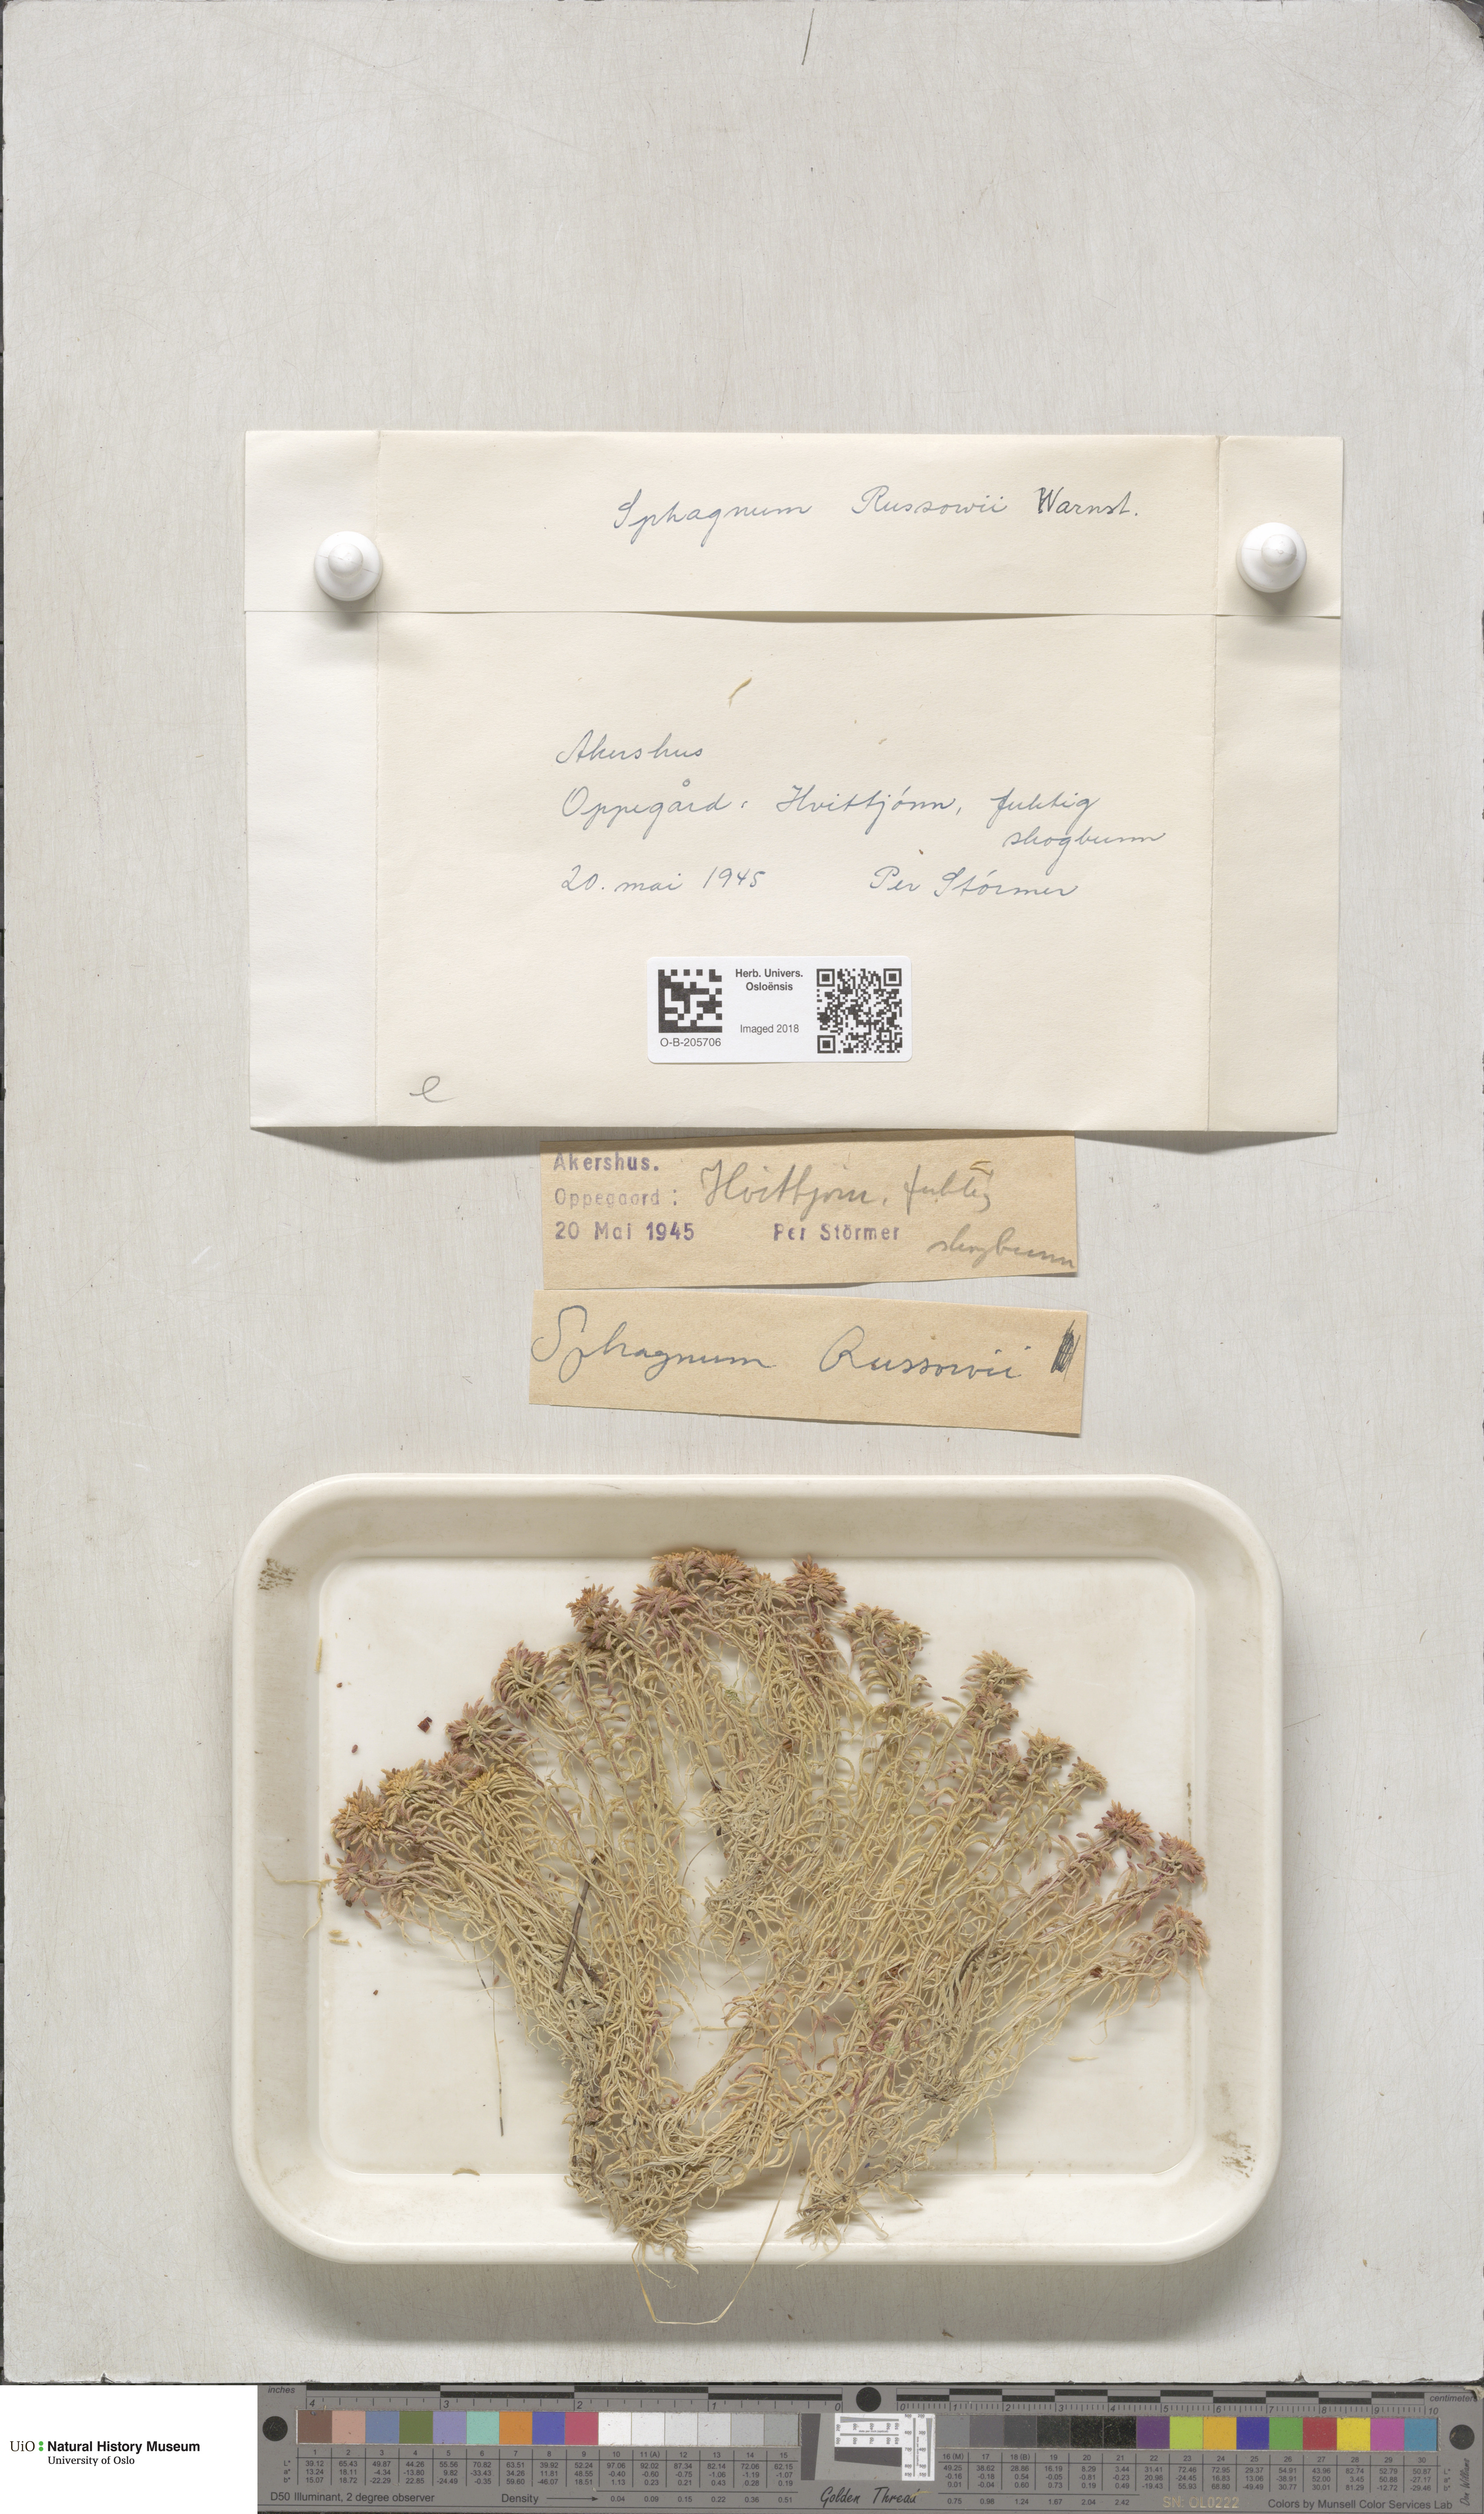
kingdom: Plantae
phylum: Bryophyta
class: Sphagnopsida
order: Sphagnales
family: Sphagnaceae
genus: Sphagnum
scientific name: Sphagnum russowii
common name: Russow's peat moss
